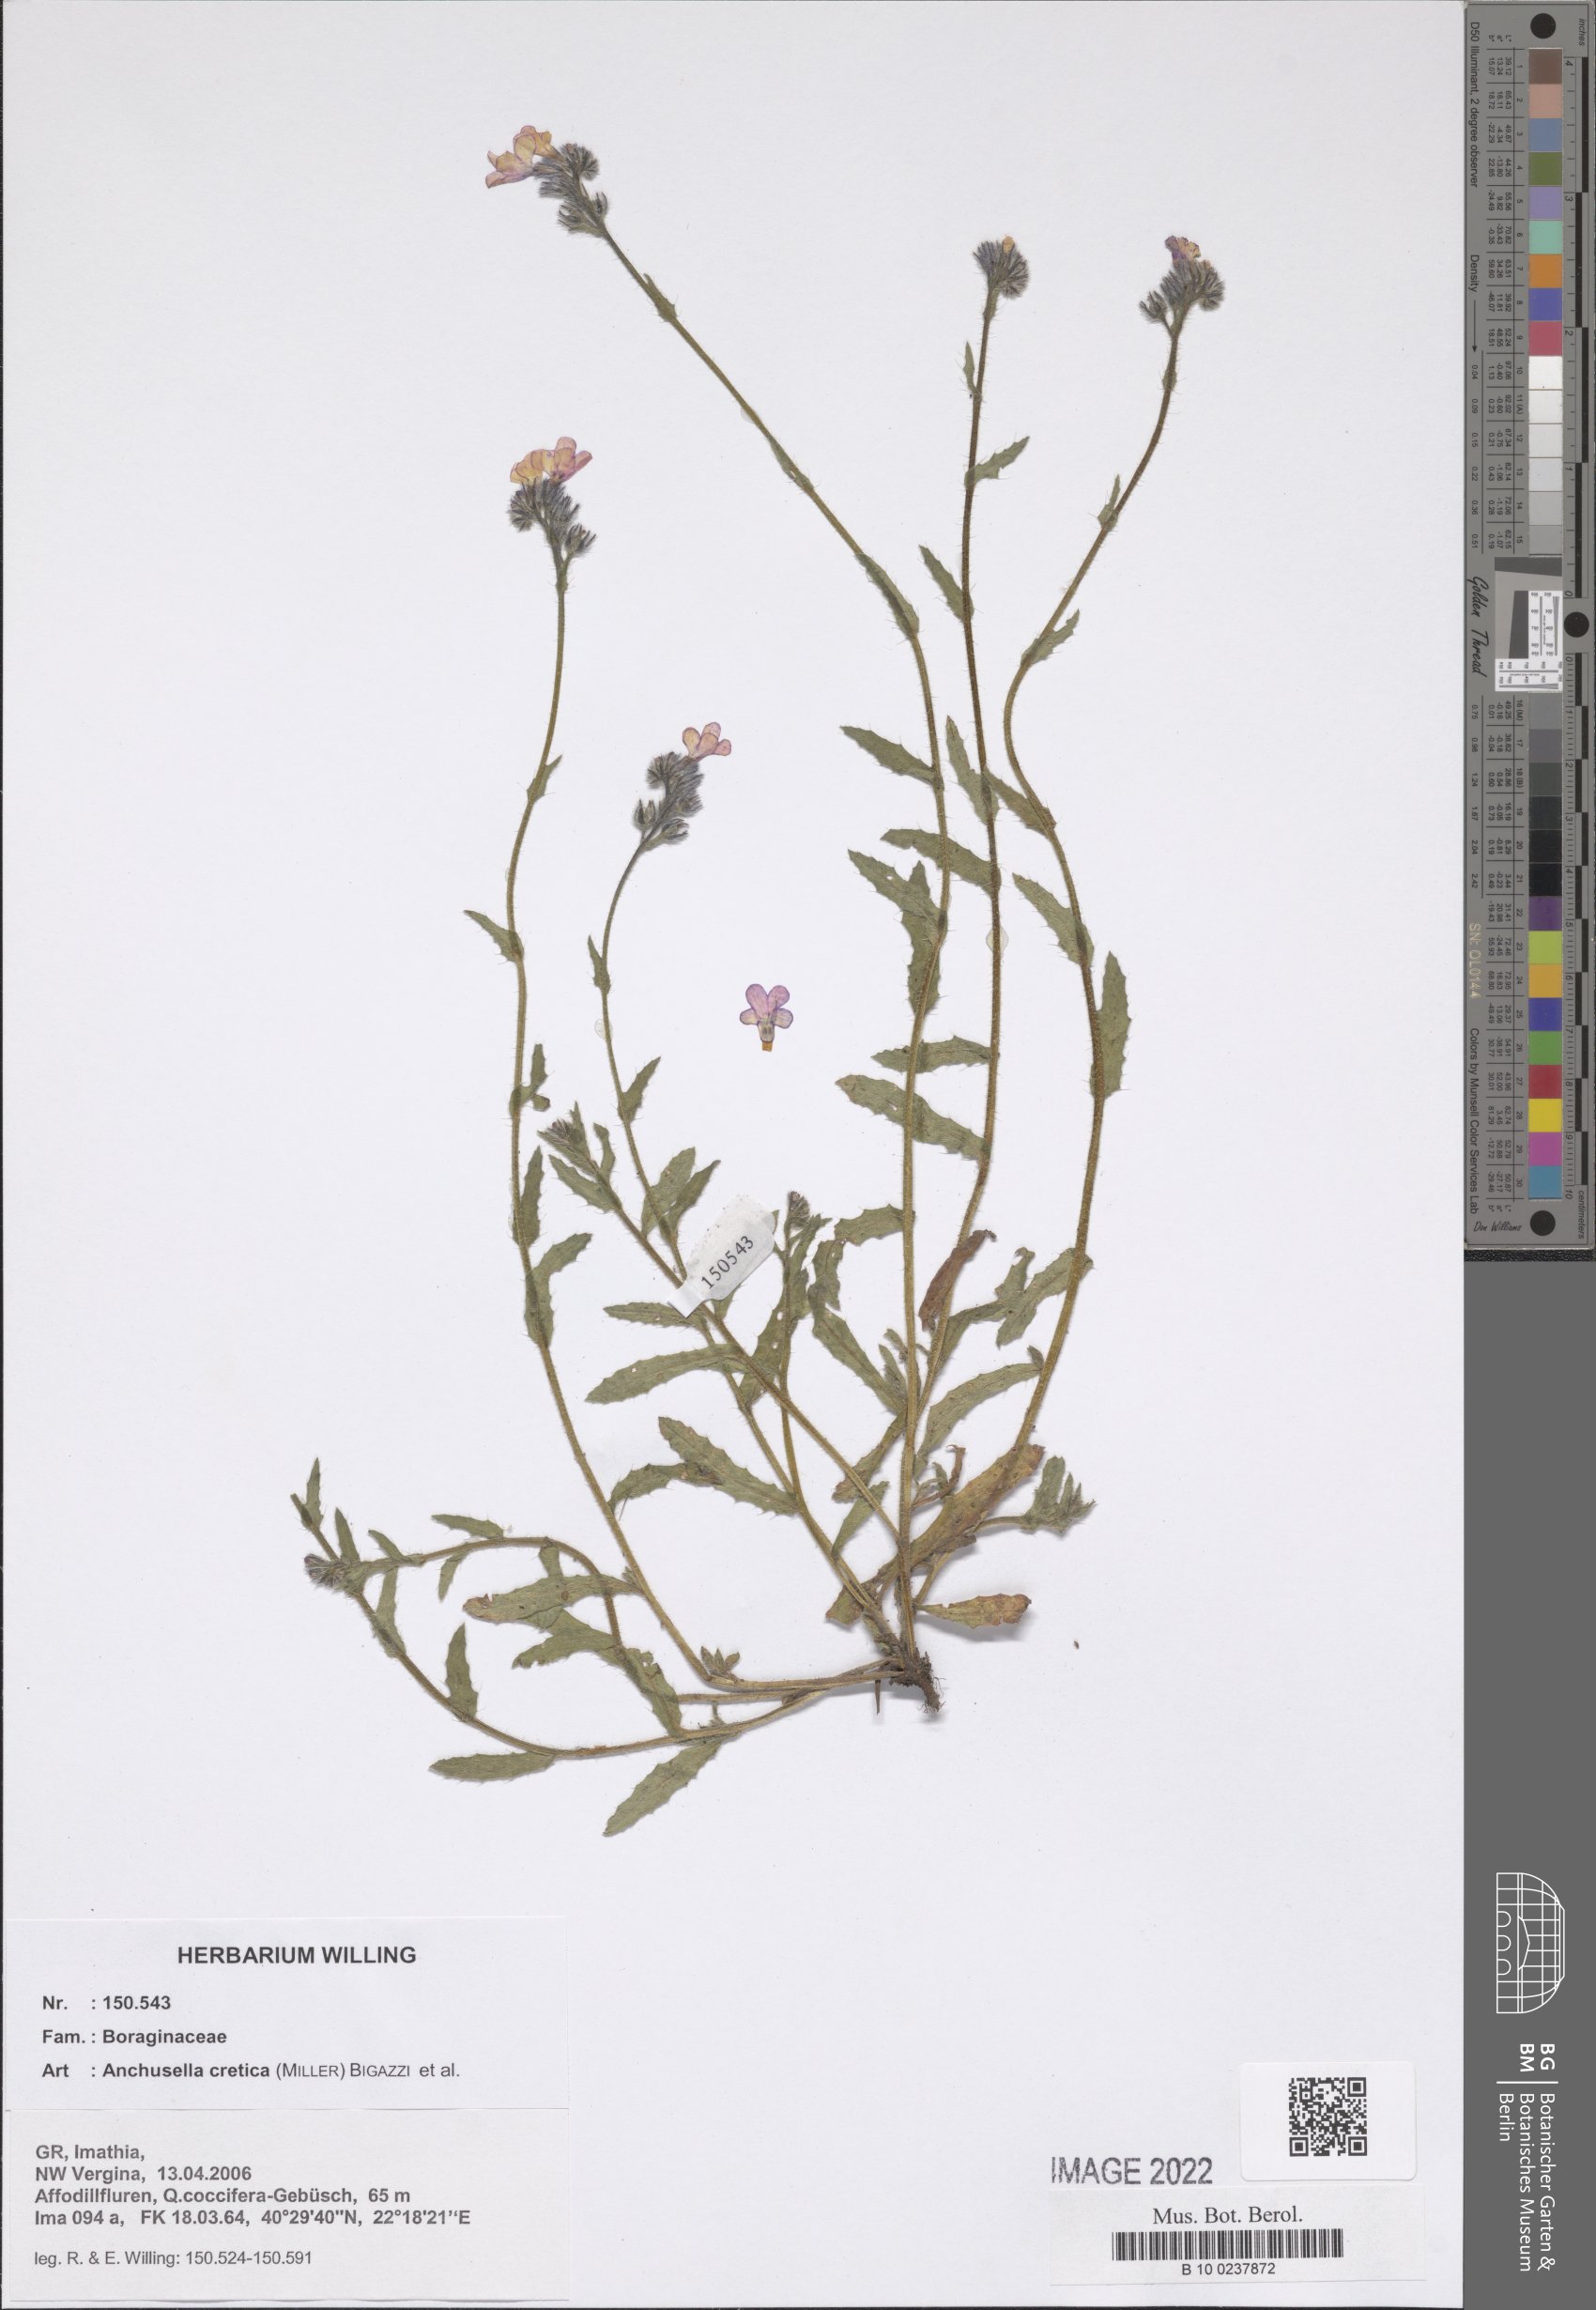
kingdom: Plantae
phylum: Tracheophyta
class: Magnoliopsida
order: Boraginales
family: Boraginaceae
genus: Lycopsis
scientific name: Lycopsis arvensis
